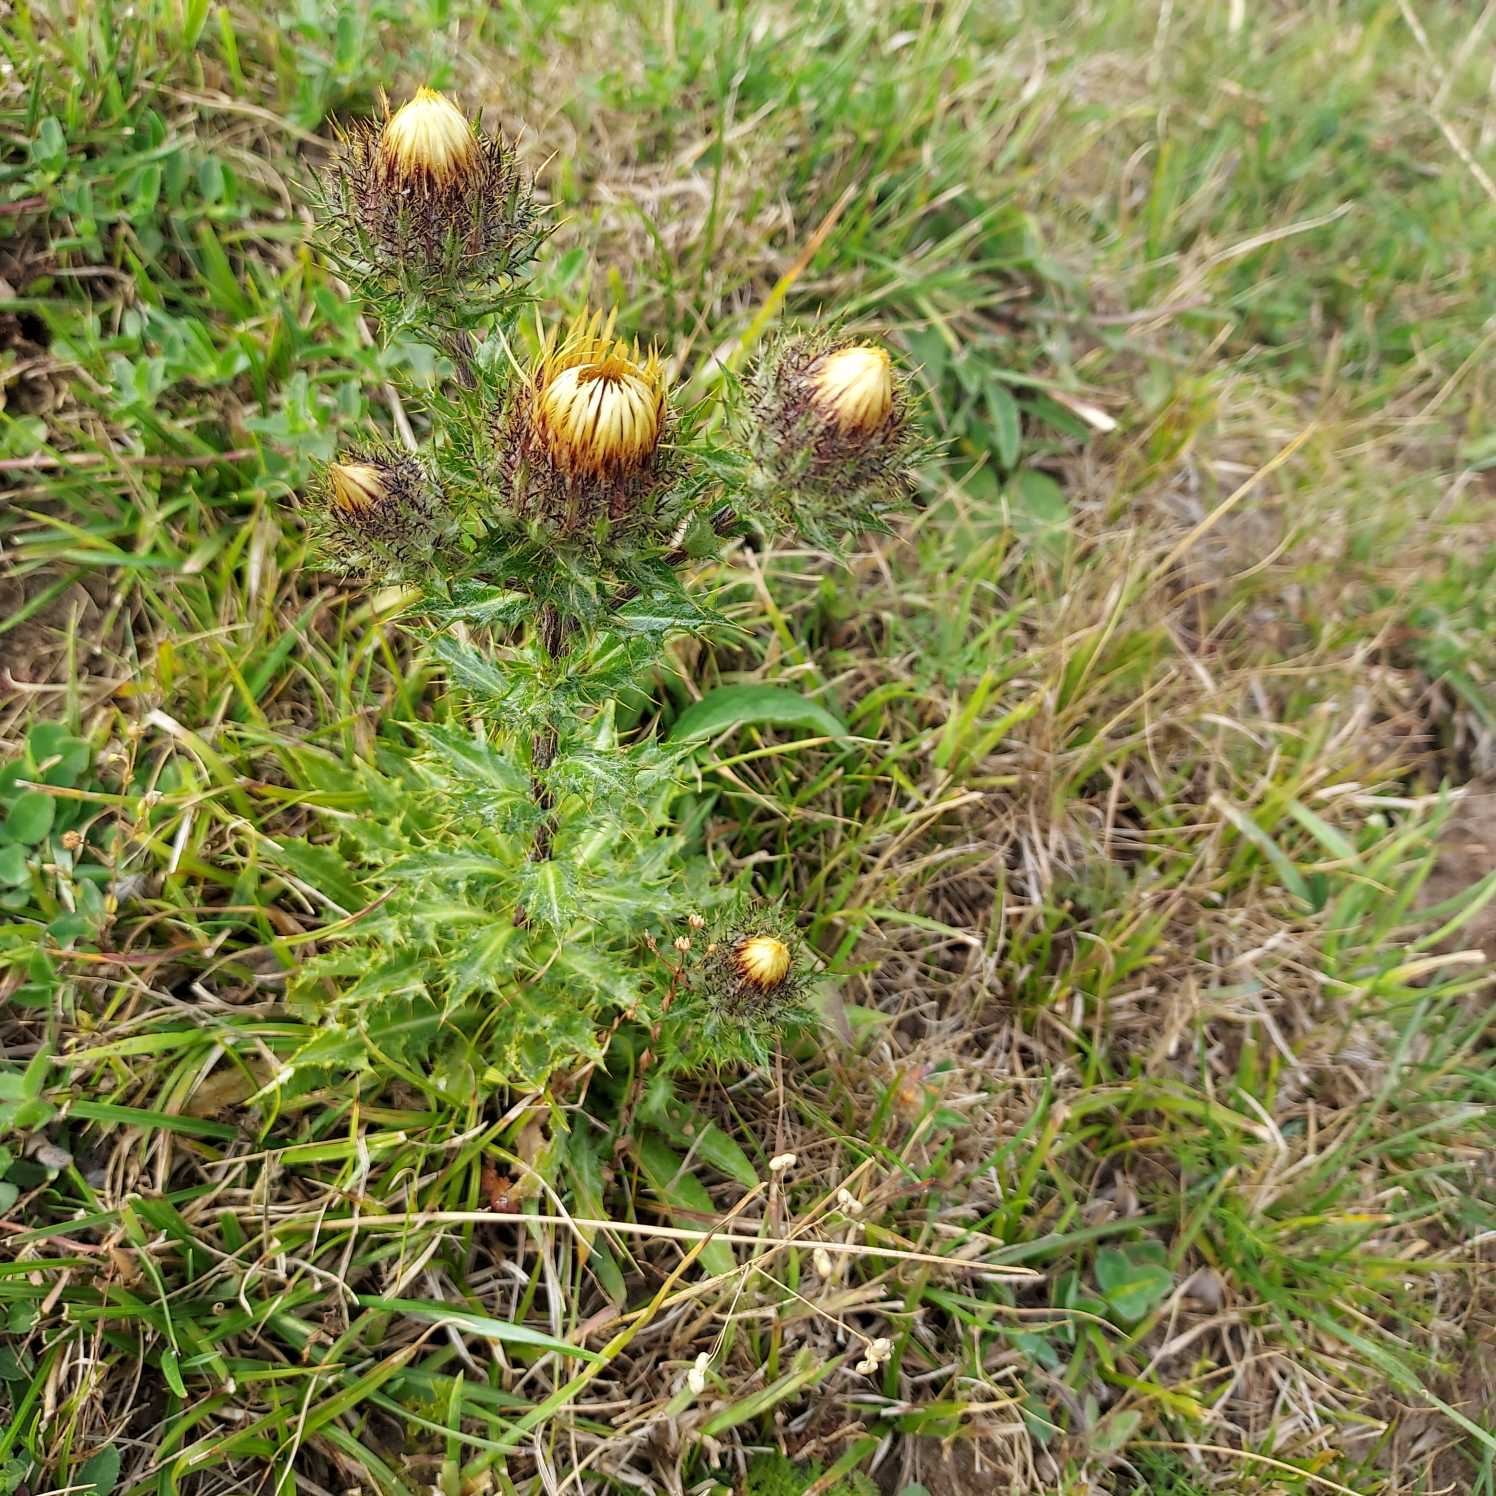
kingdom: Plantae
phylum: Tracheophyta
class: Magnoliopsida
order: Asterales
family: Asteraceae
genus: Carlina
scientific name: Carlina vulgaris
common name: Bakketidsel
